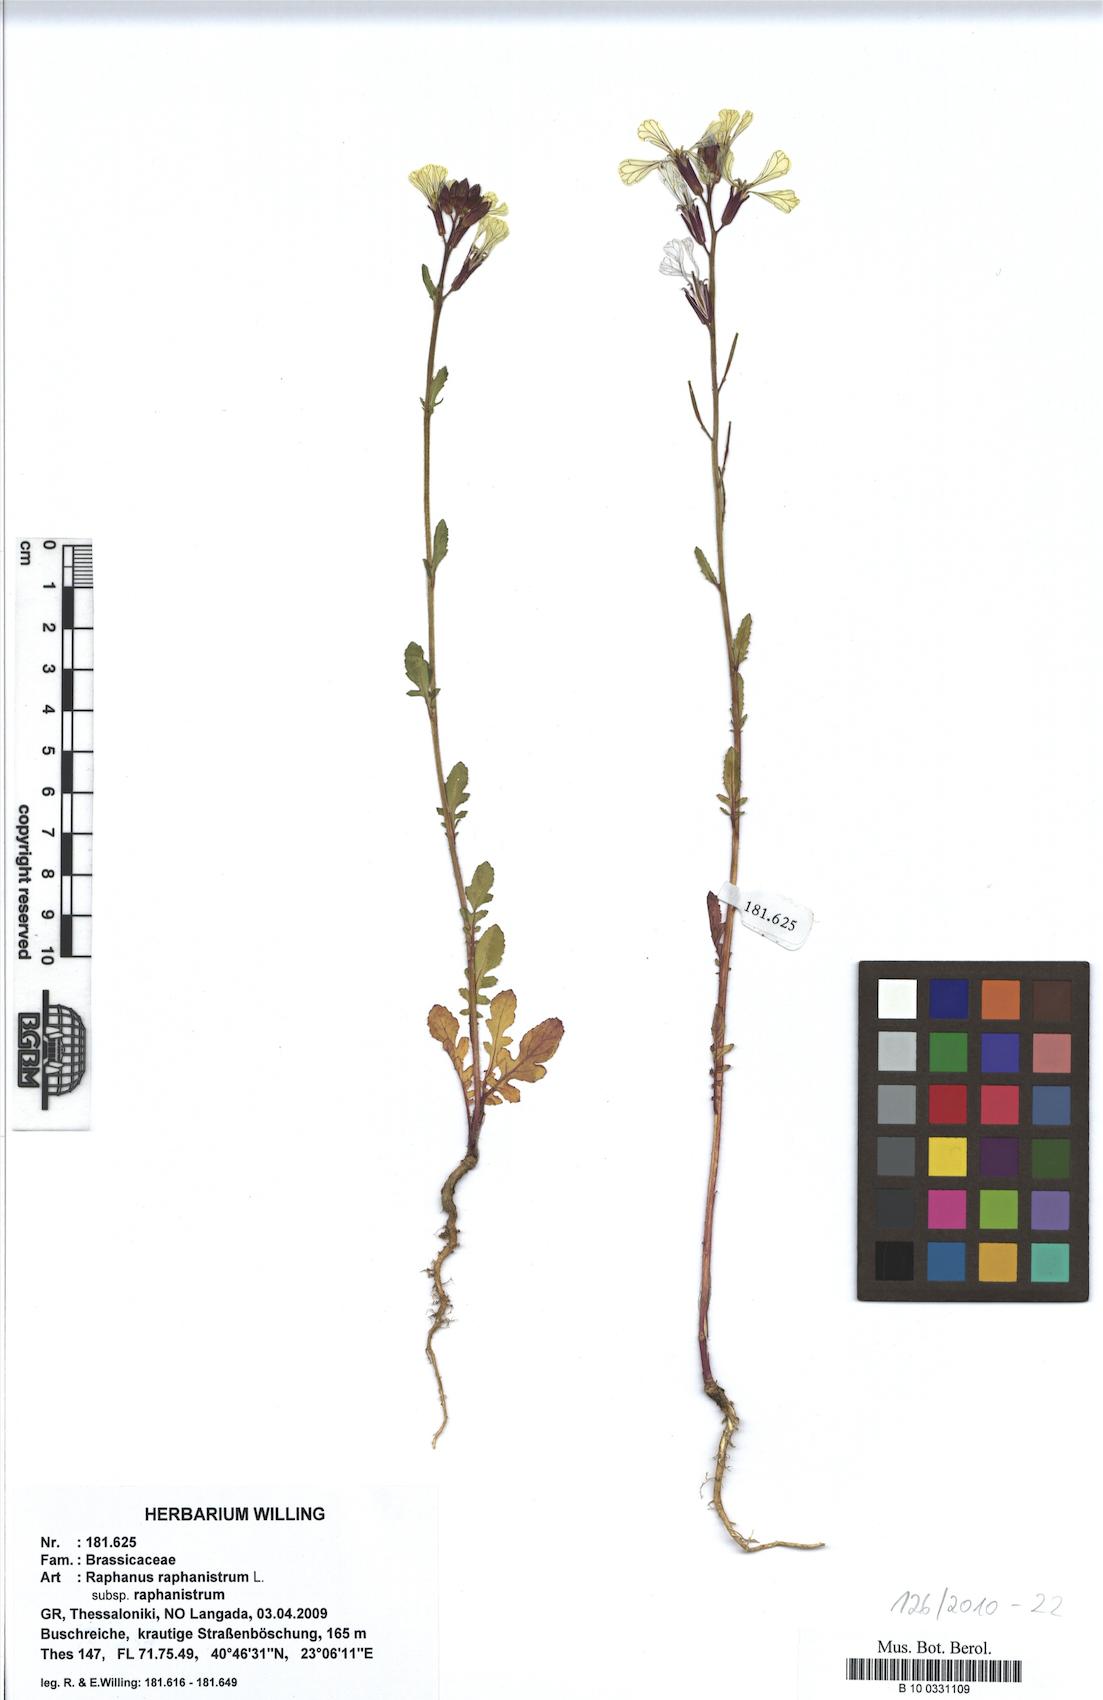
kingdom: Plantae
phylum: Tracheophyta
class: Magnoliopsida
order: Brassicales
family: Brassicaceae
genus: Raphanus
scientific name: Raphanus raphanistrum
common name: Wild radish
